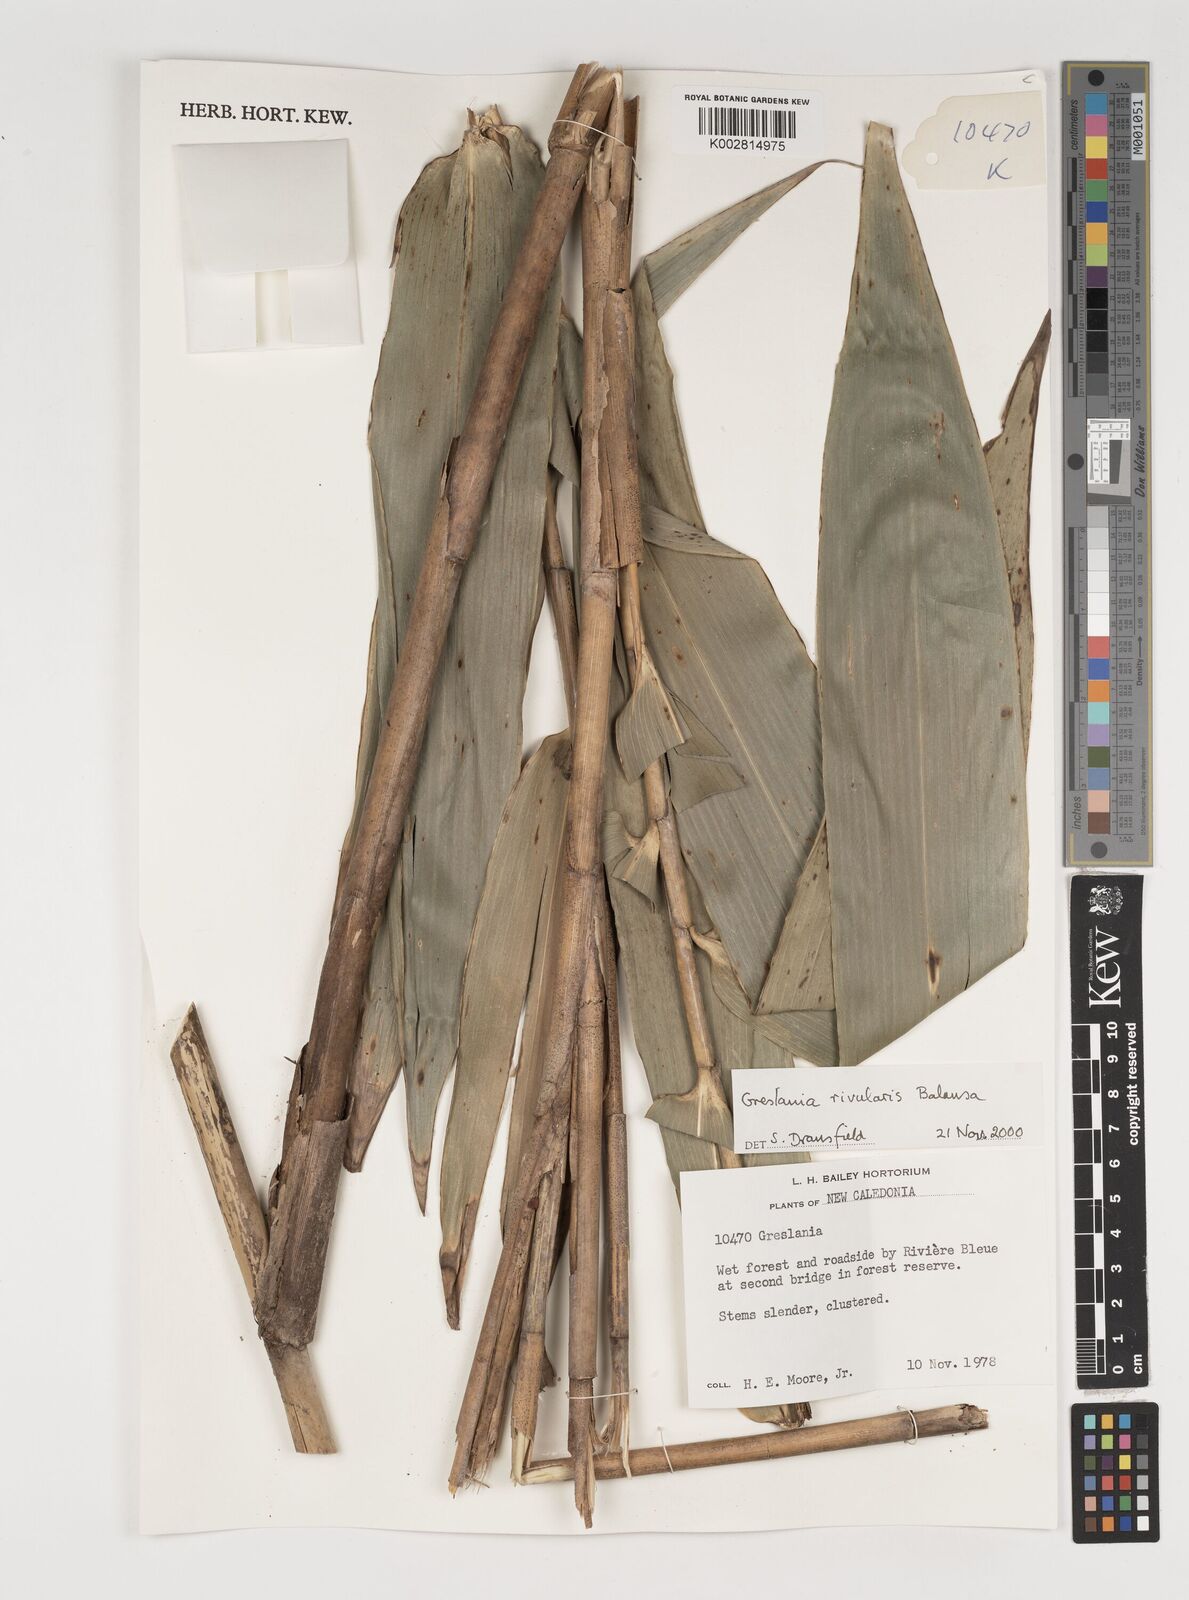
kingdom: Plantae
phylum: Tracheophyta
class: Liliopsida
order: Poales
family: Poaceae
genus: Greslania
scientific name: Greslania rivularis
